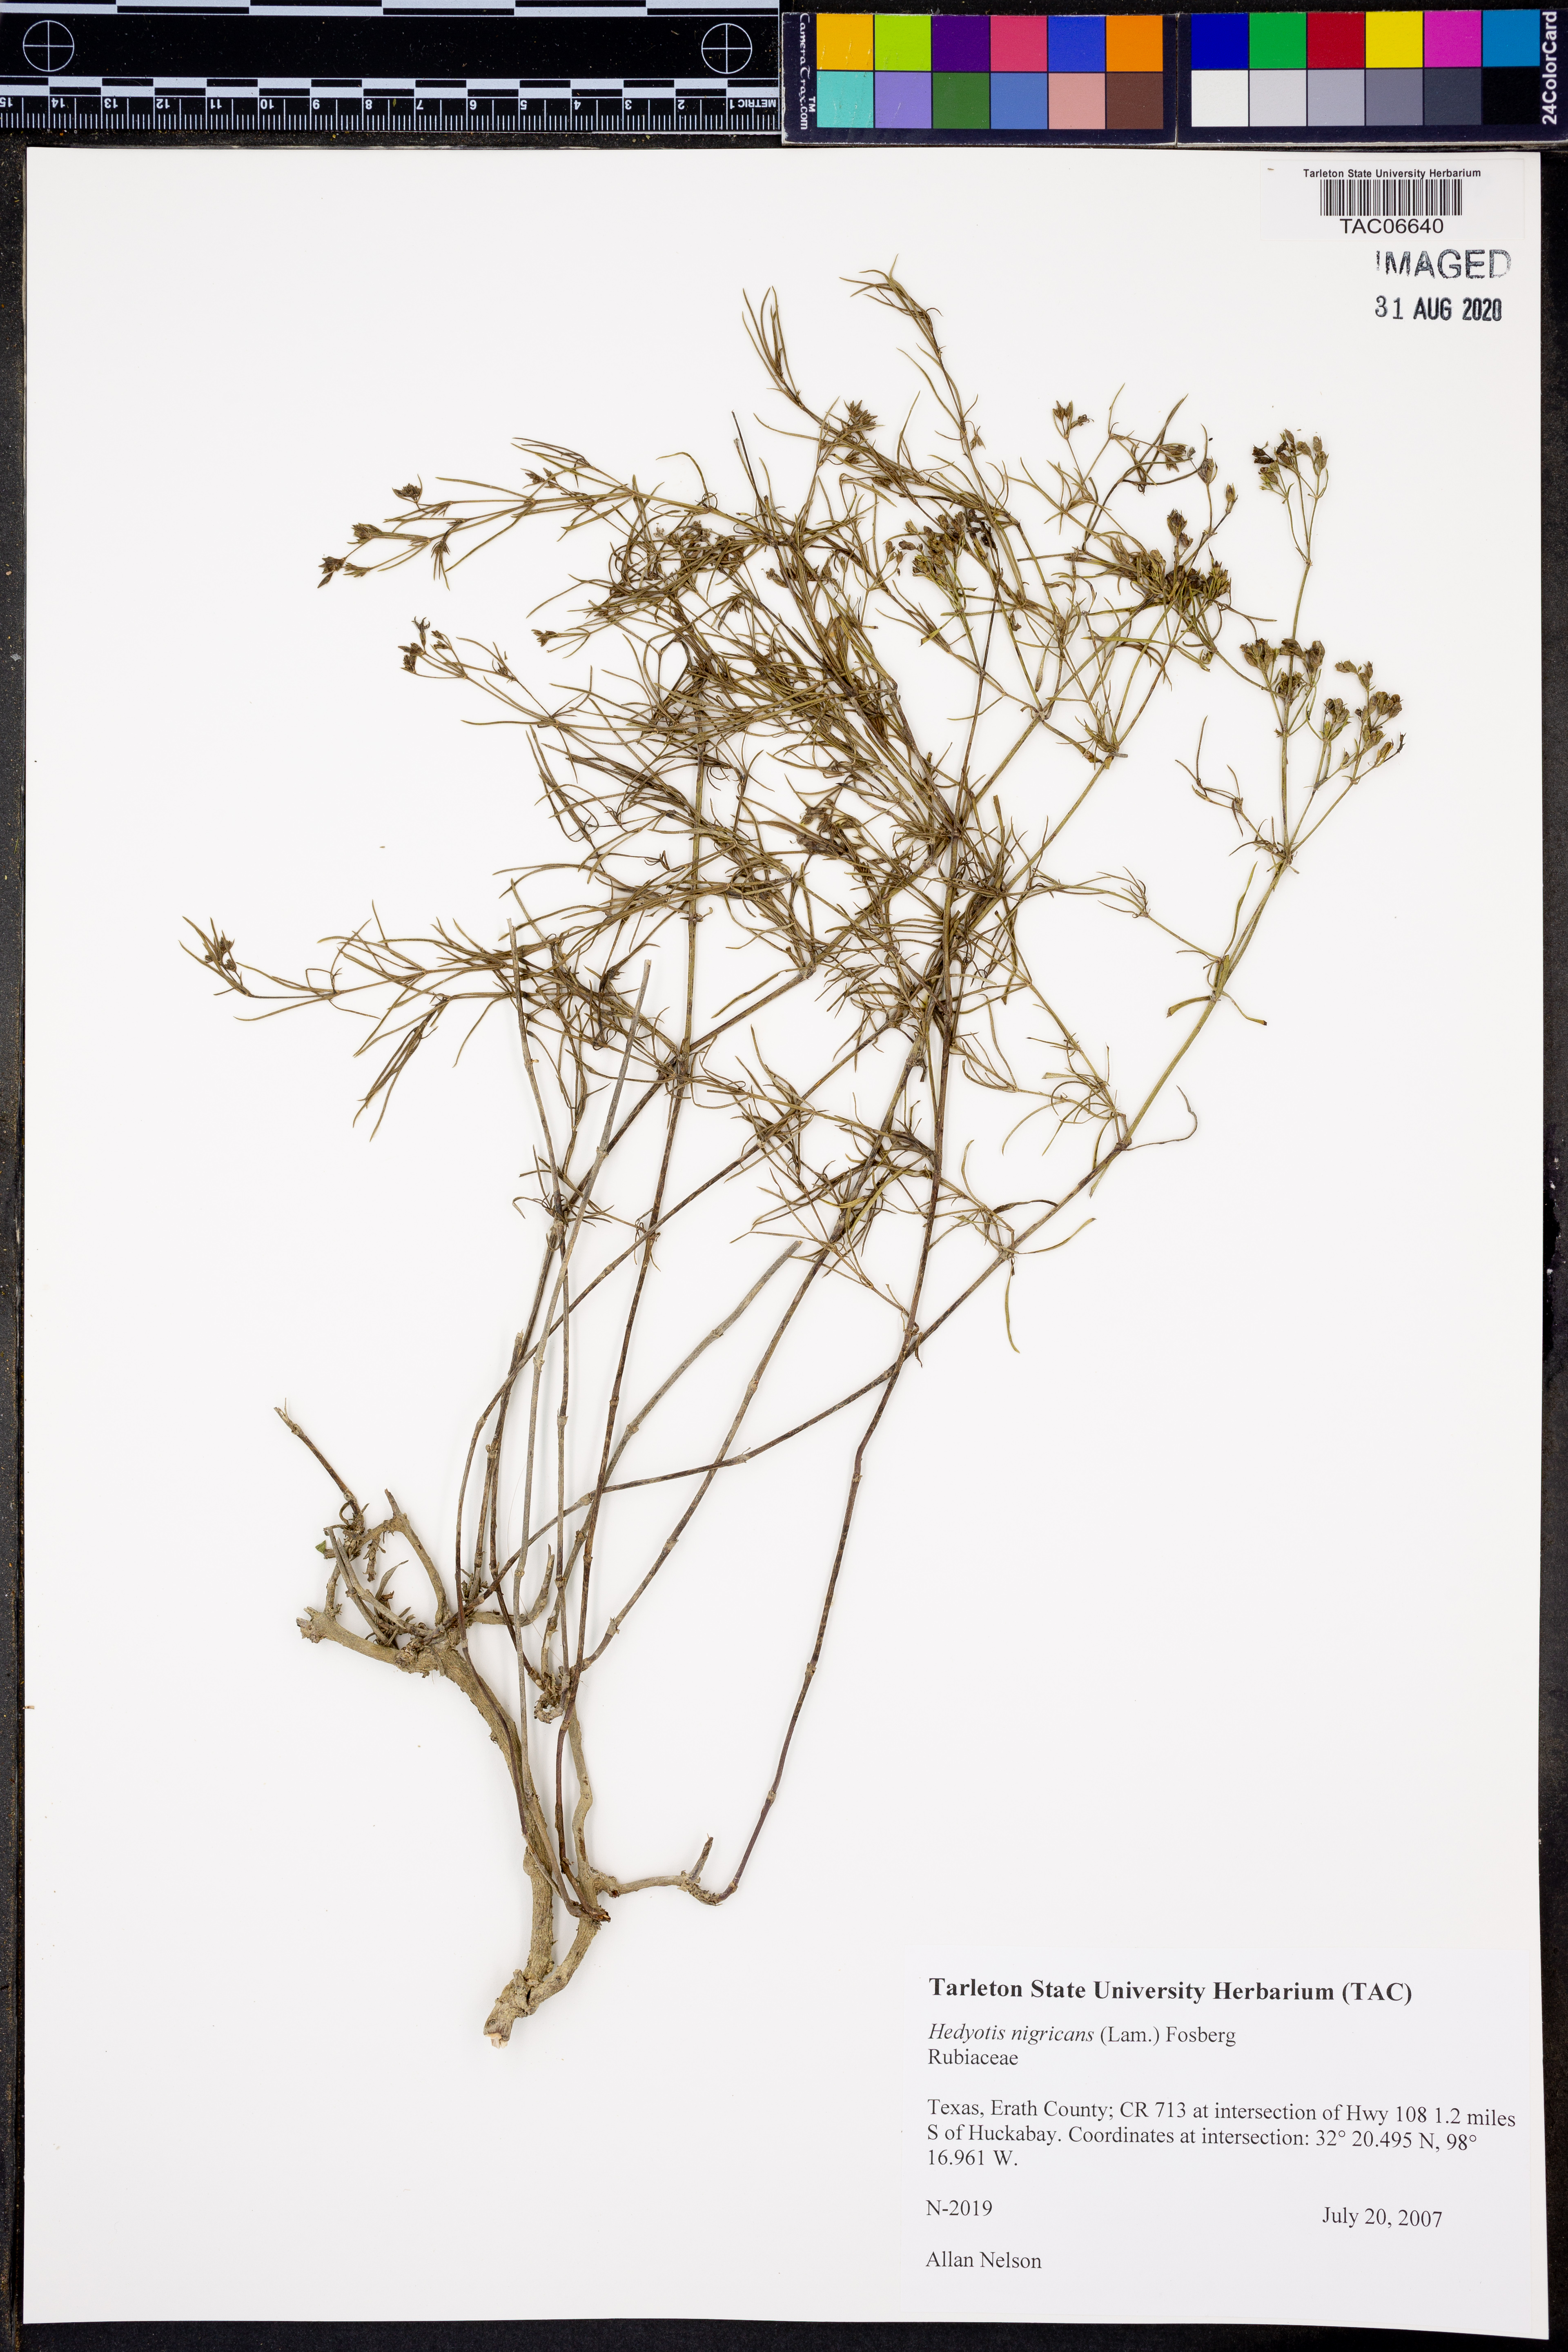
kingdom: Plantae
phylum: Tracheophyta
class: Magnoliopsida
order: Gentianales
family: Rubiaceae
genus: Stenaria
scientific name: Stenaria nigricans
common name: Diamondflowers
